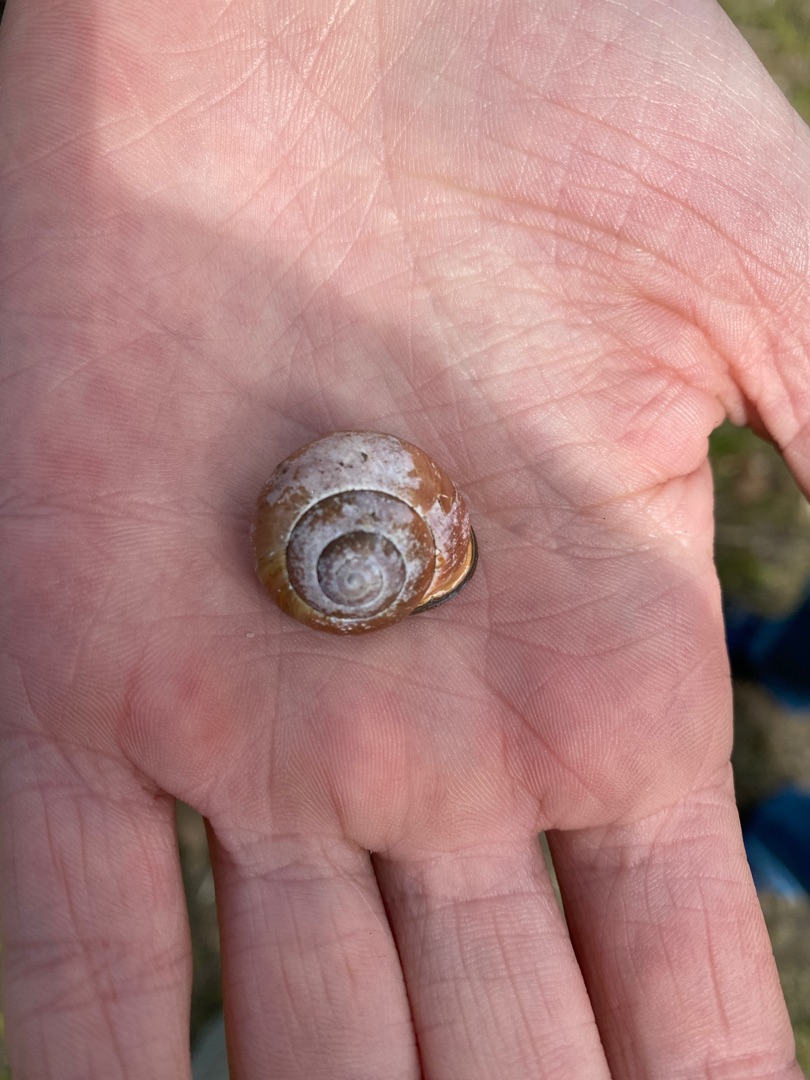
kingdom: Animalia
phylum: Mollusca
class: Gastropoda
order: Stylommatophora
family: Helicidae
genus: Cepaea
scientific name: Cepaea nemoralis
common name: Lundsnegl
